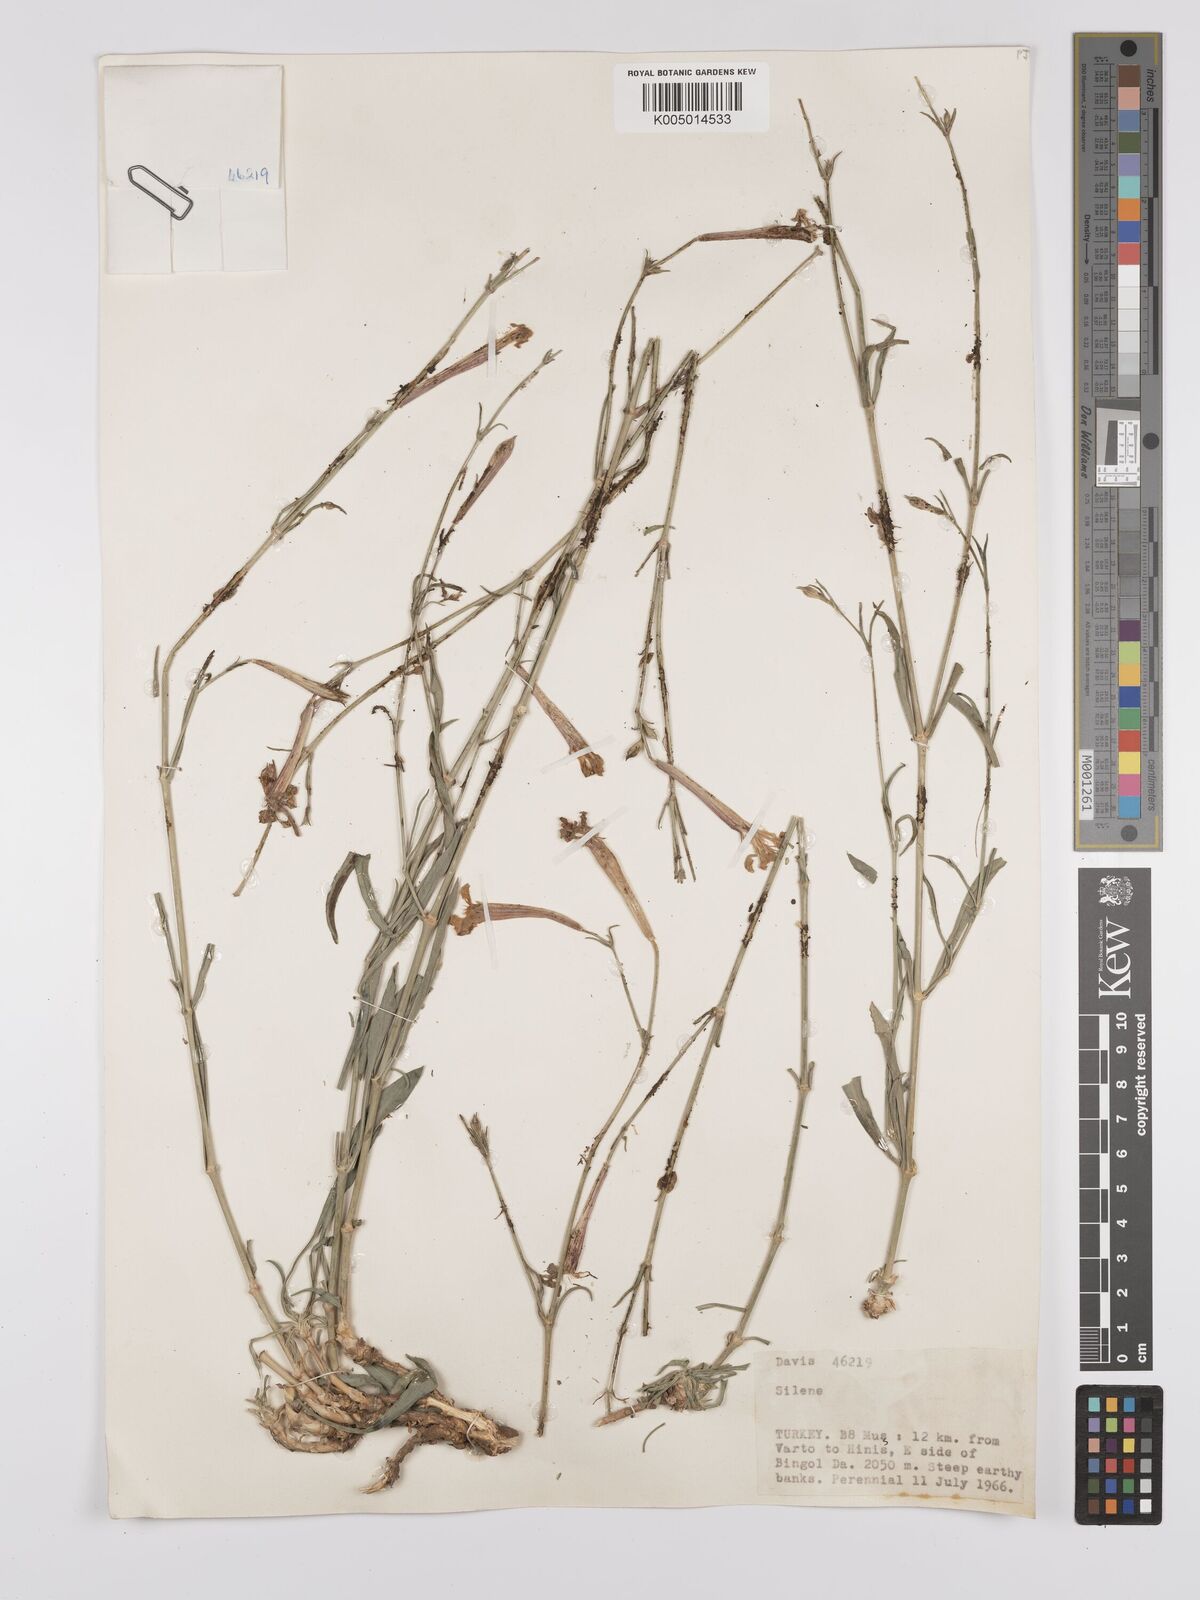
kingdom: Plantae
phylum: Tracheophyta
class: Magnoliopsida
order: Caryophyllales
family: Caryophyllaceae
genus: Silene
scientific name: Silene
